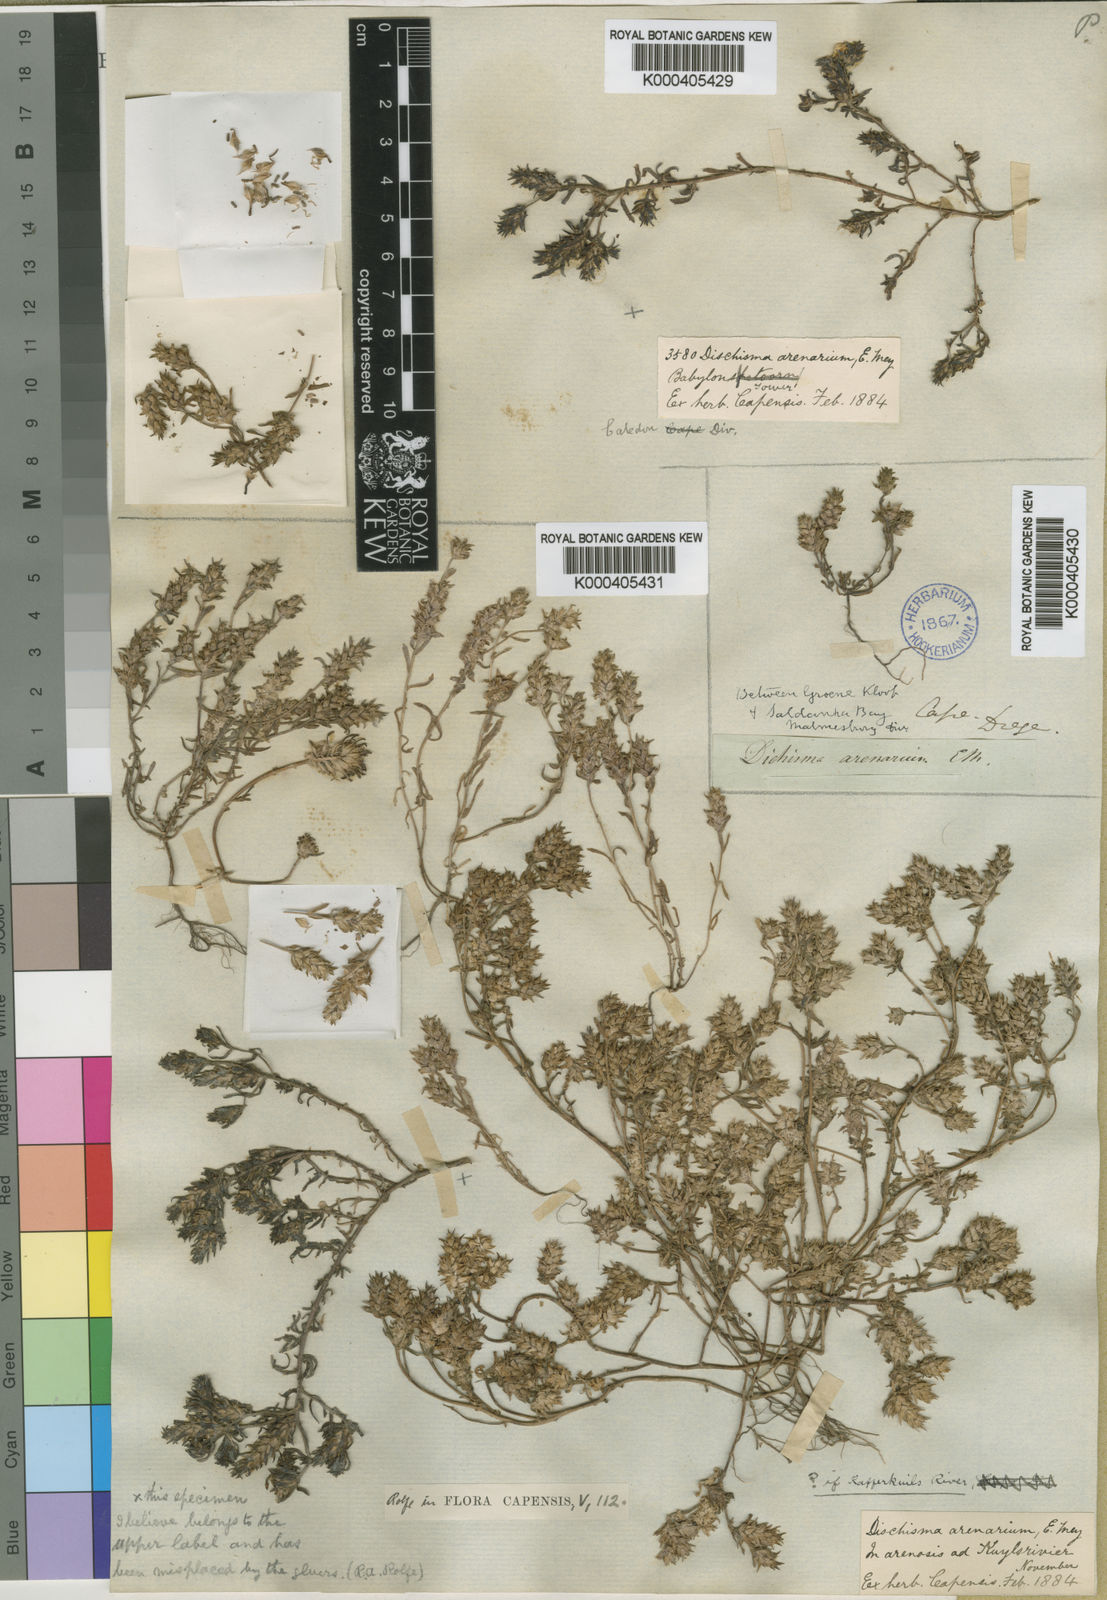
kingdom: Plantae
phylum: Tracheophyta
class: Magnoliopsida
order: Lamiales
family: Scrophulariaceae
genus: Dischisma
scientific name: Dischisma arenarium
